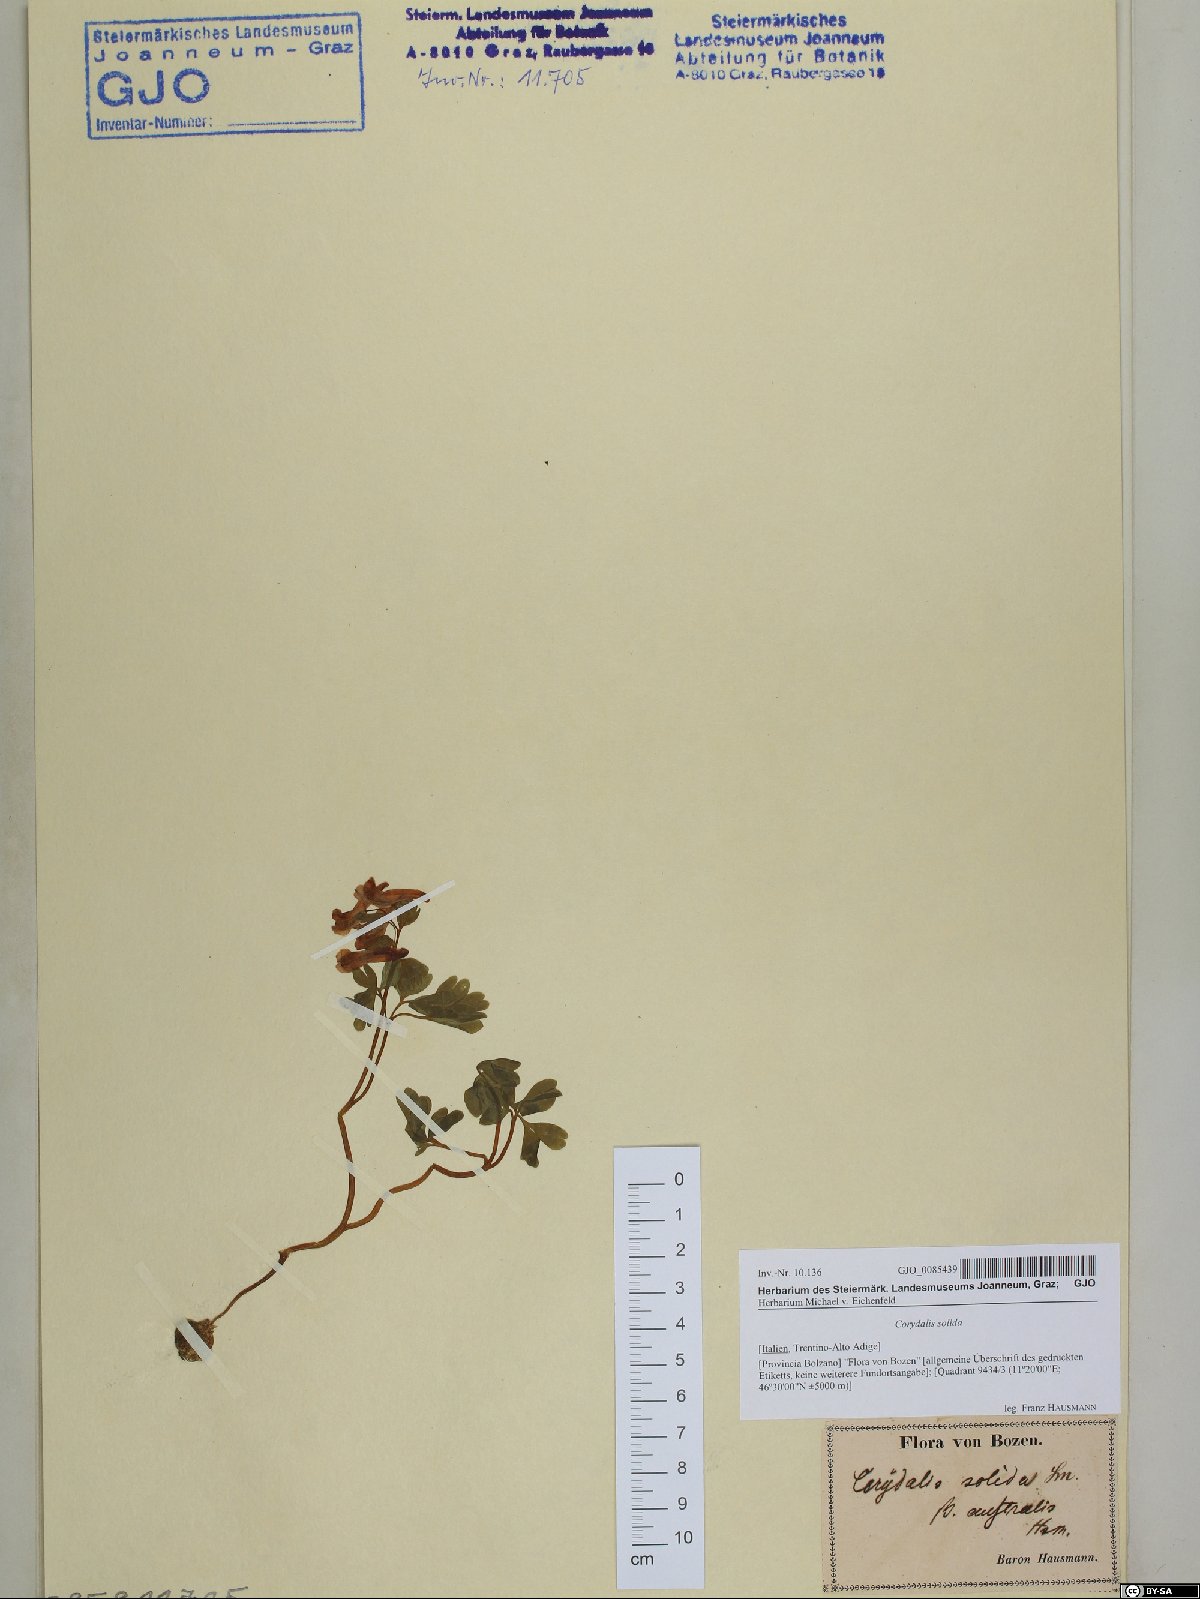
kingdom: Plantae
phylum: Tracheophyta
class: Magnoliopsida
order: Ranunculales
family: Papaveraceae
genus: Corydalis
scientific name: Corydalis solida
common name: Bird-in-a-bush
